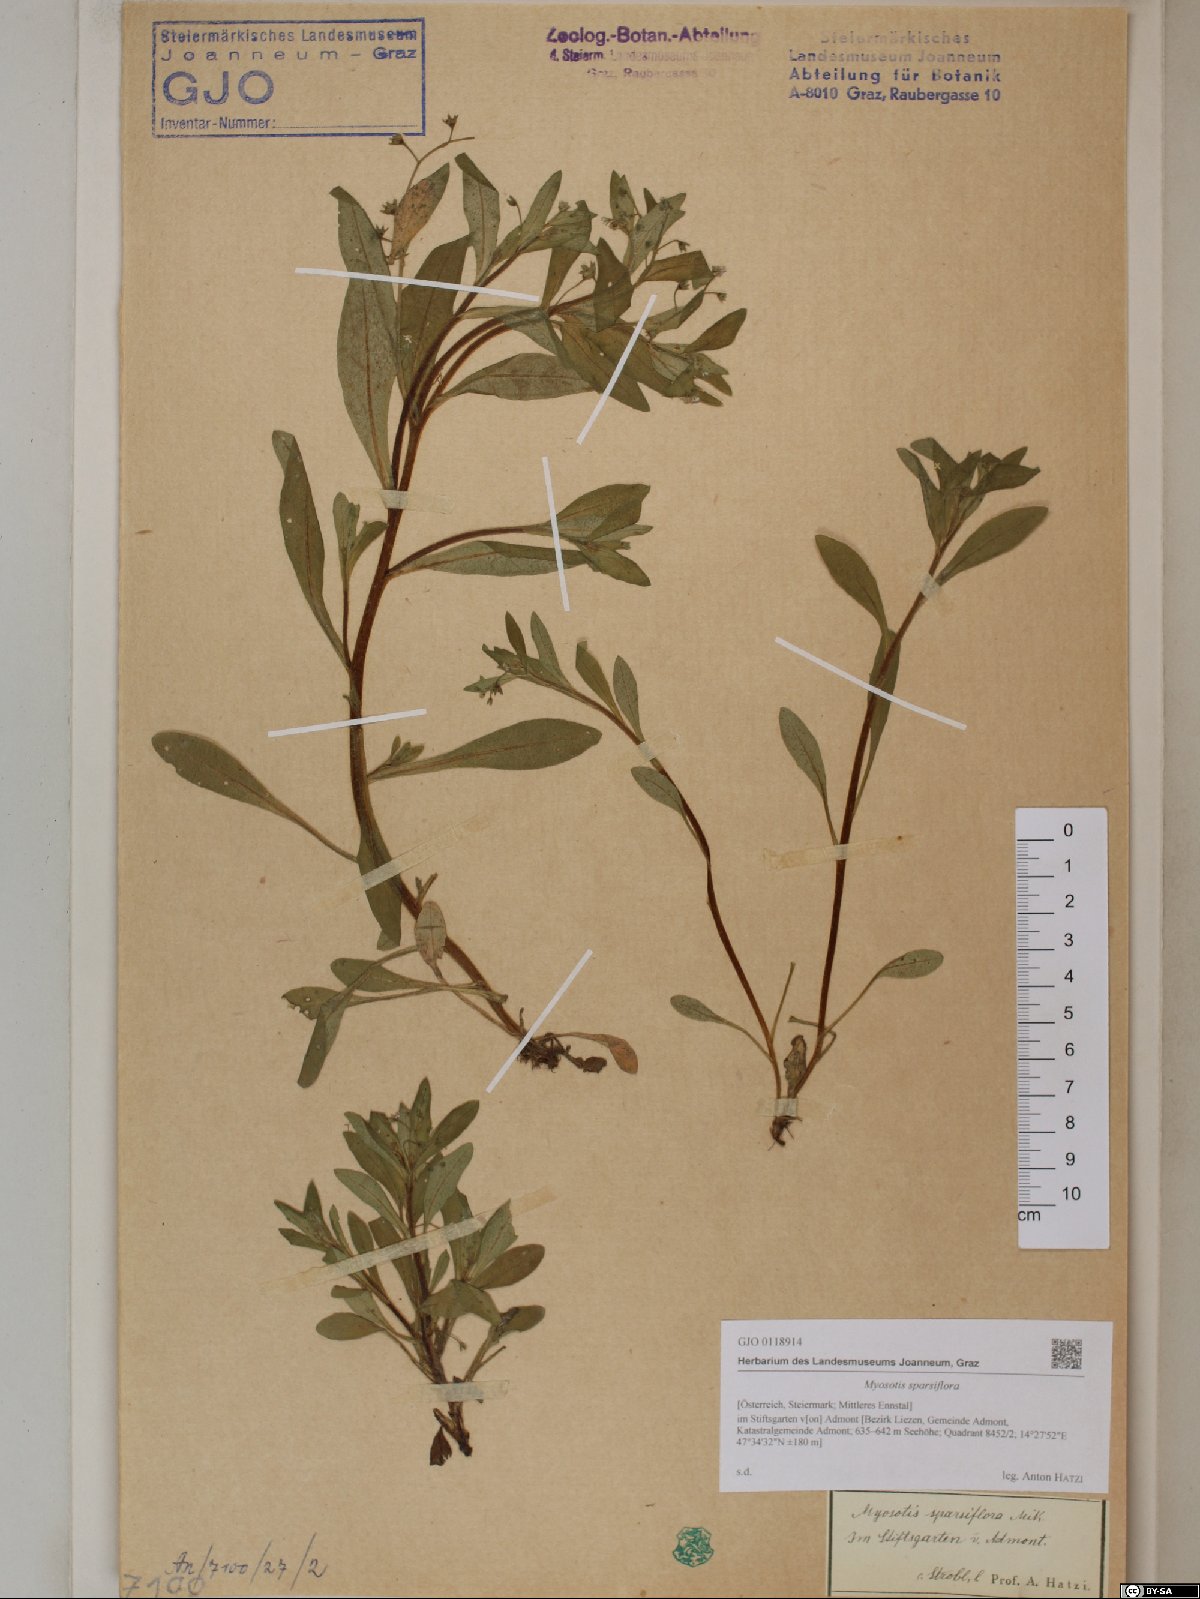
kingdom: Plantae
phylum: Tracheophyta
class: Magnoliopsida
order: Boraginales
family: Boraginaceae
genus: Myosotis
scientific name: Myosotis sparsiflora
